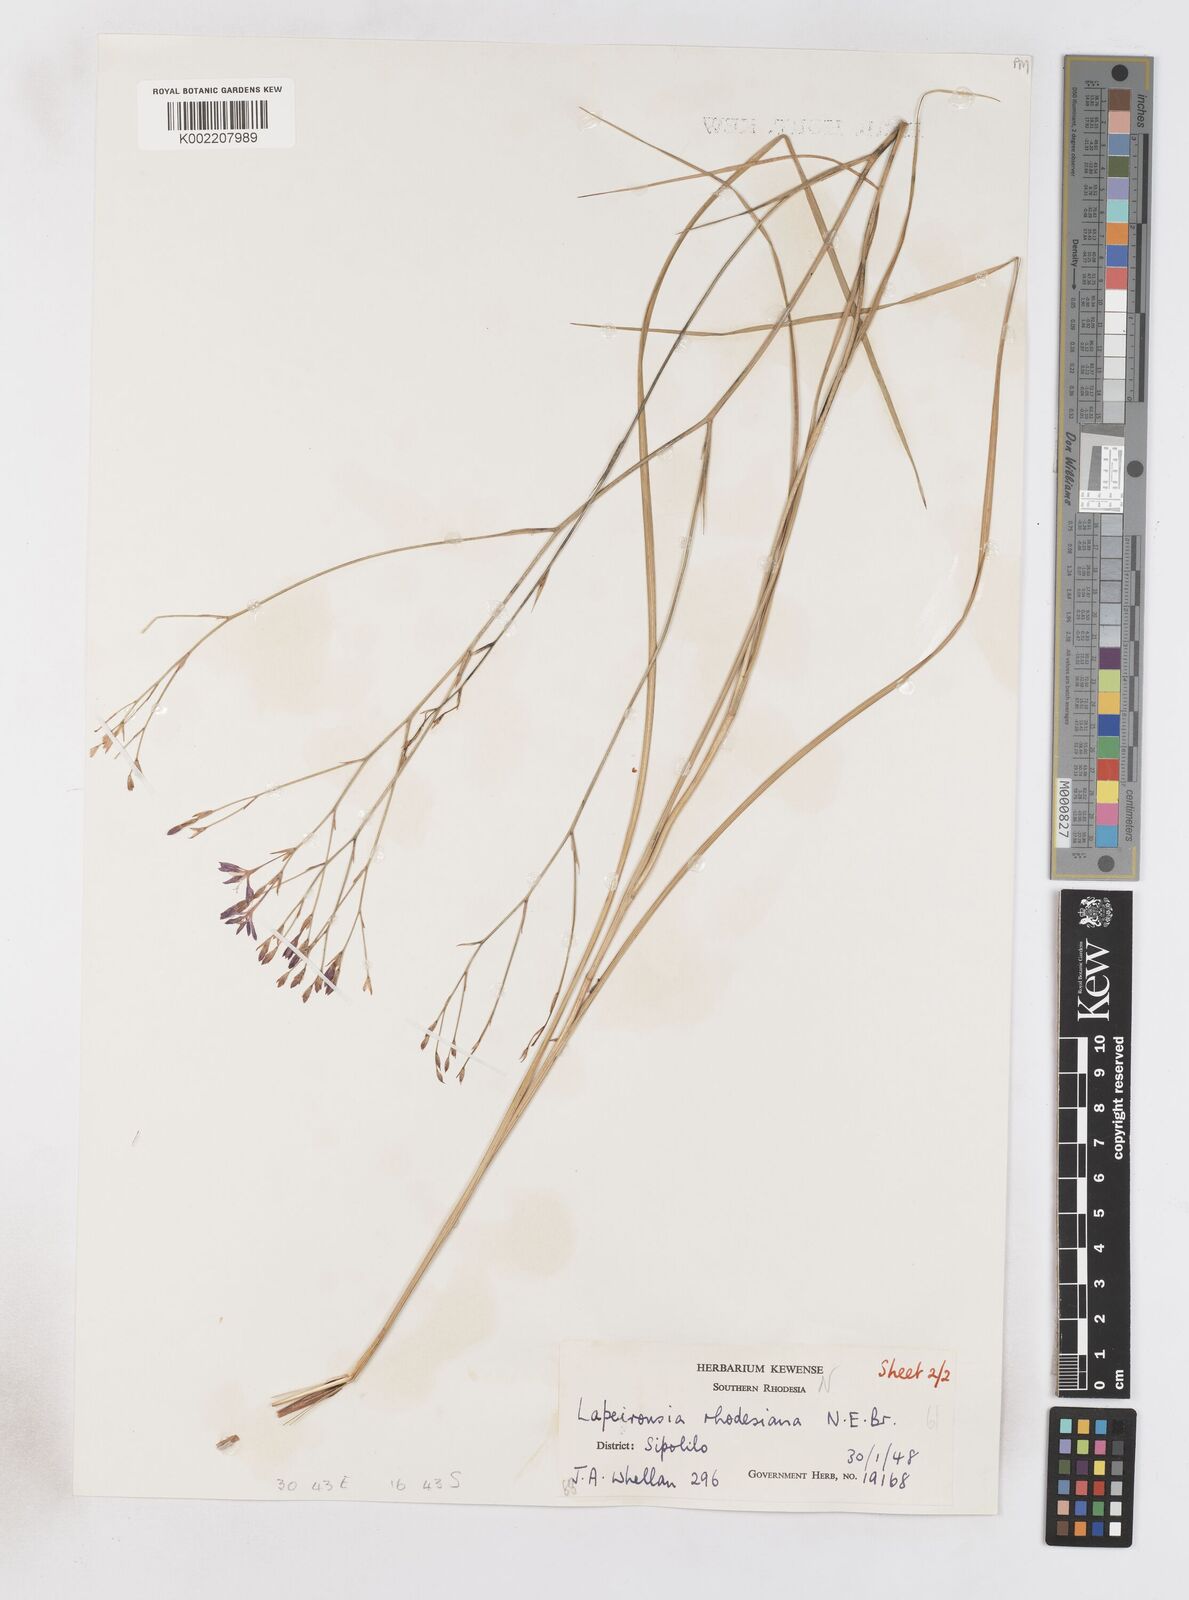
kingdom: Plantae
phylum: Tracheophyta
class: Liliopsida
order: Asparagales
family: Iridaceae
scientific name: Iridaceae
